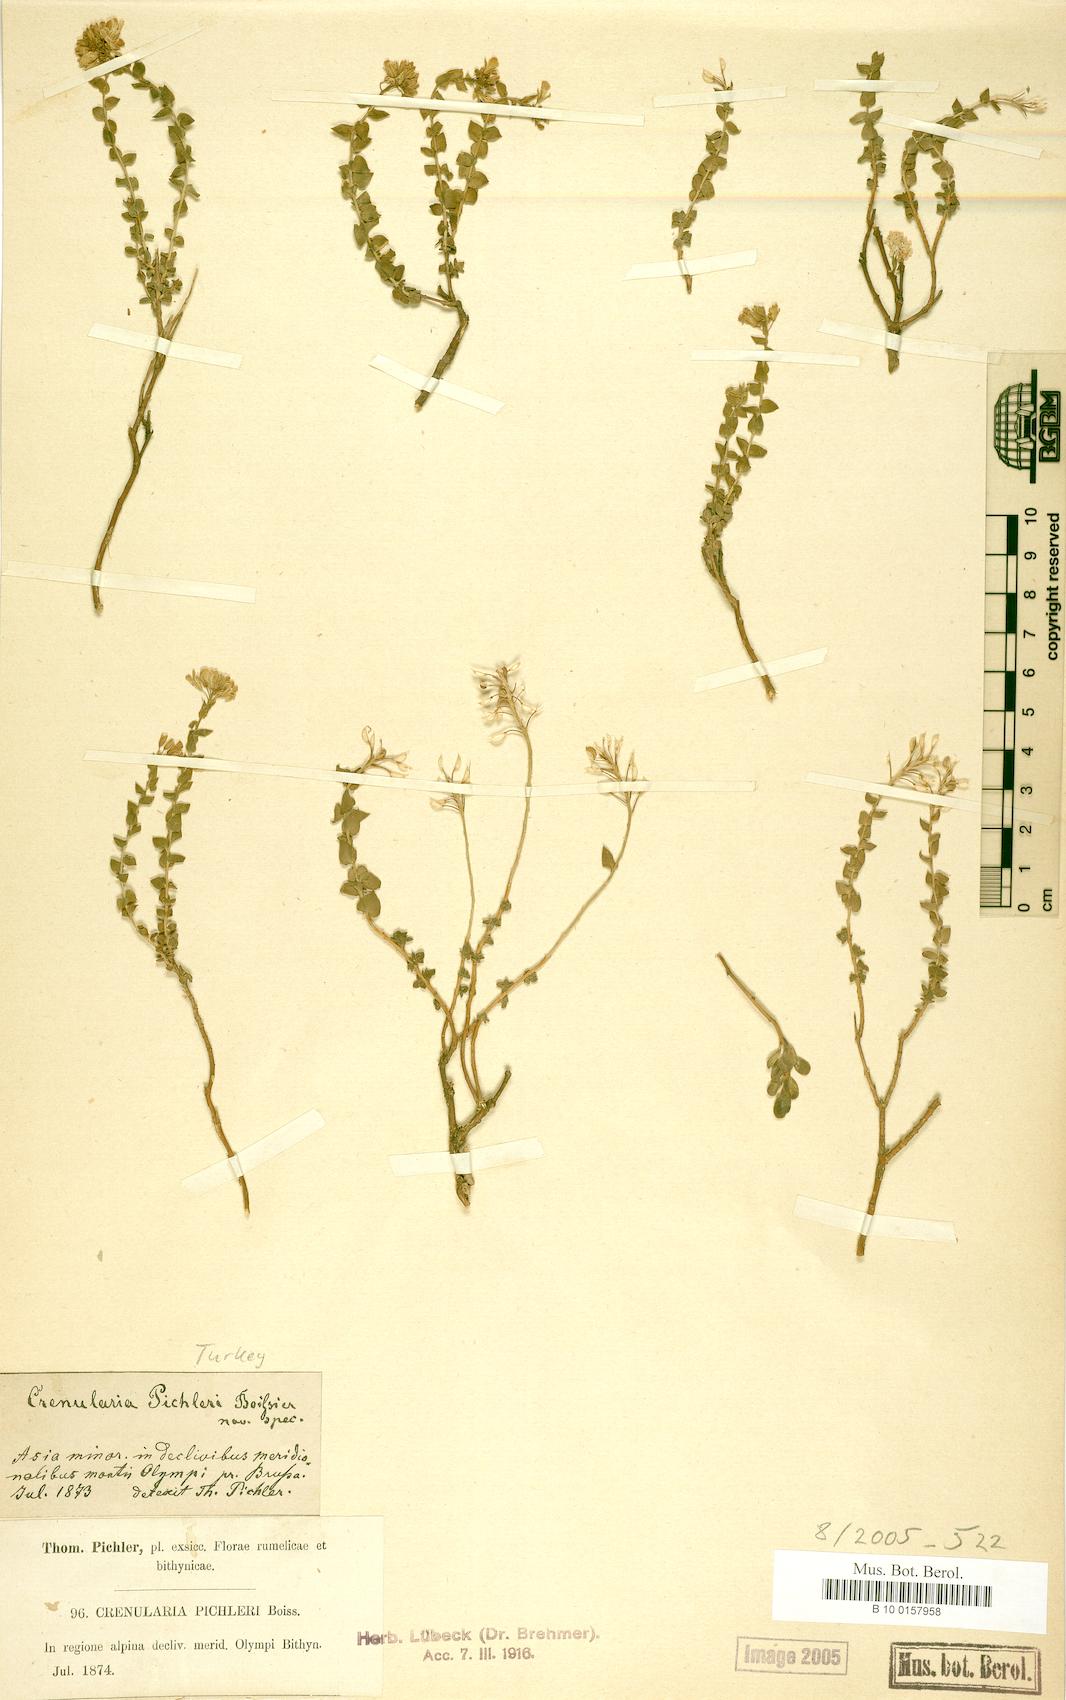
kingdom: Plantae
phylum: Tracheophyta
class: Magnoliopsida
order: Brassicales
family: Brassicaceae
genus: Aethionema
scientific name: Aethionema
